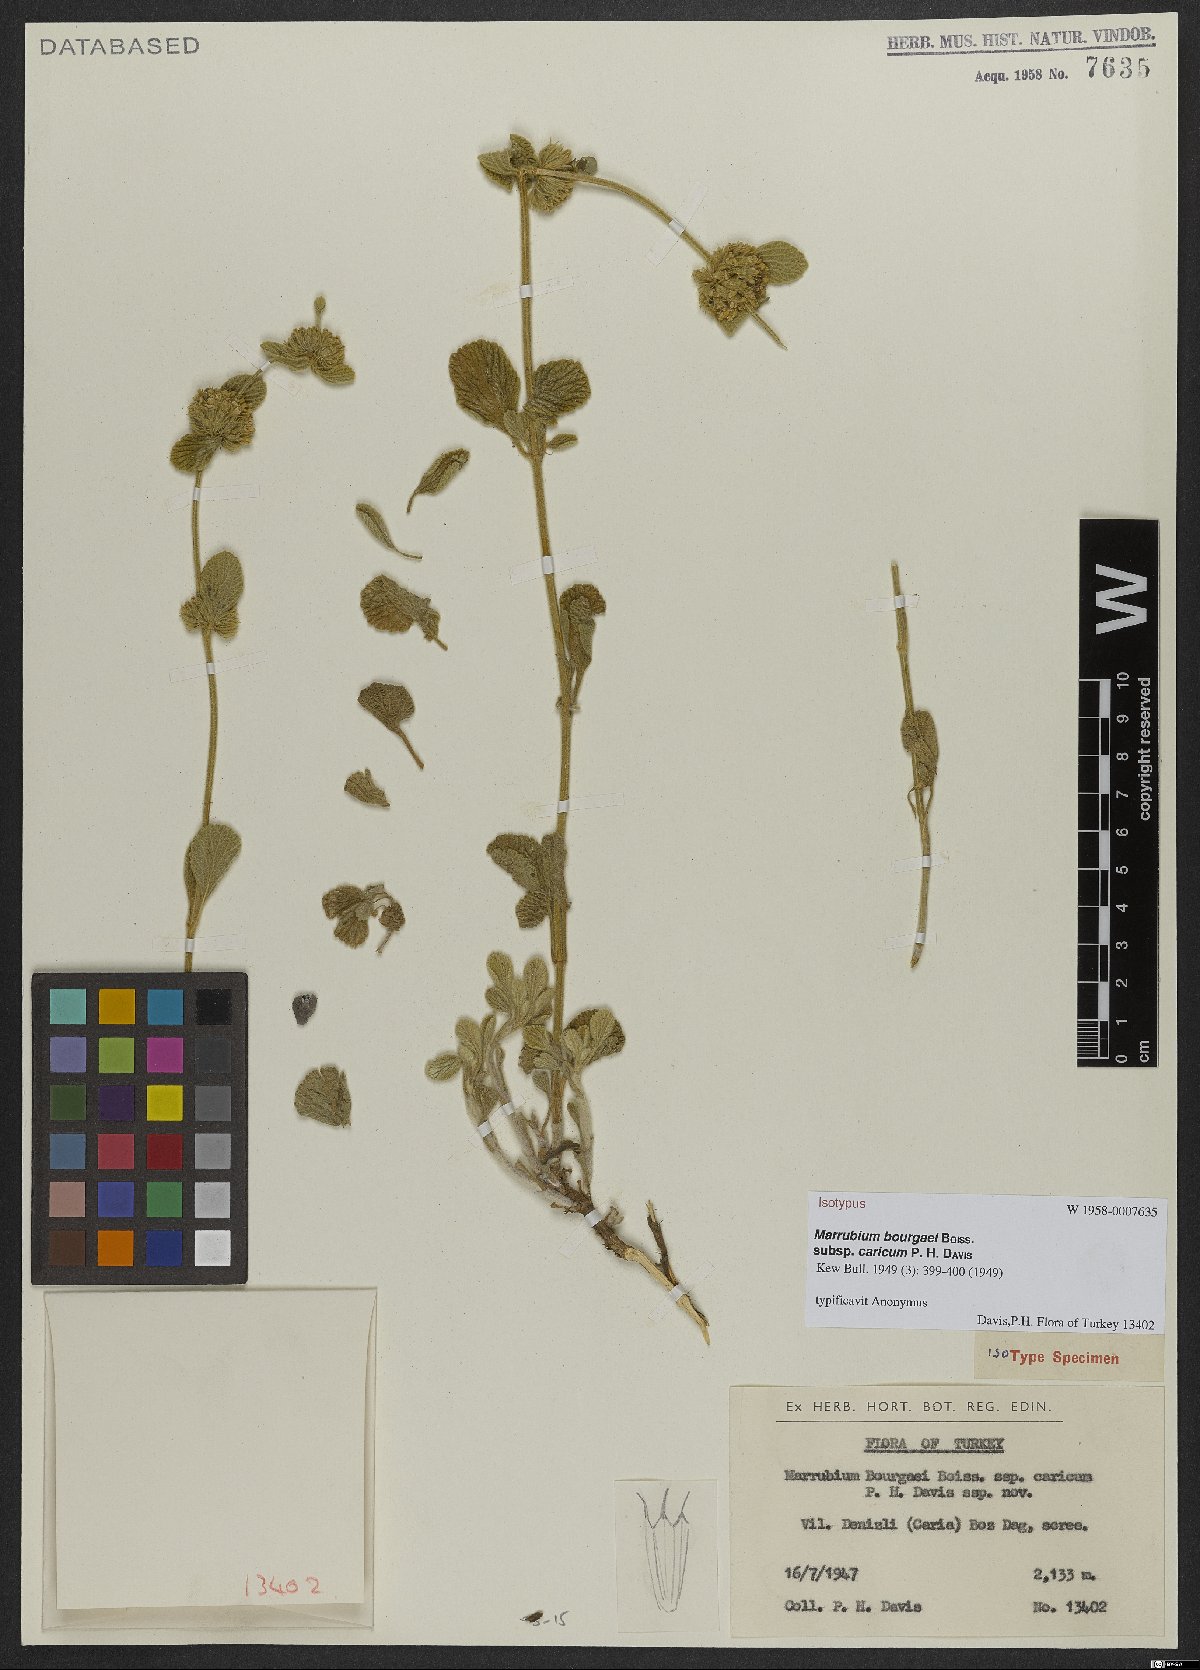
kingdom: Plantae
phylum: Tracheophyta
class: Magnoliopsida
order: Lamiales
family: Lamiaceae
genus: Marrubium
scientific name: Marrubium bourgaei
